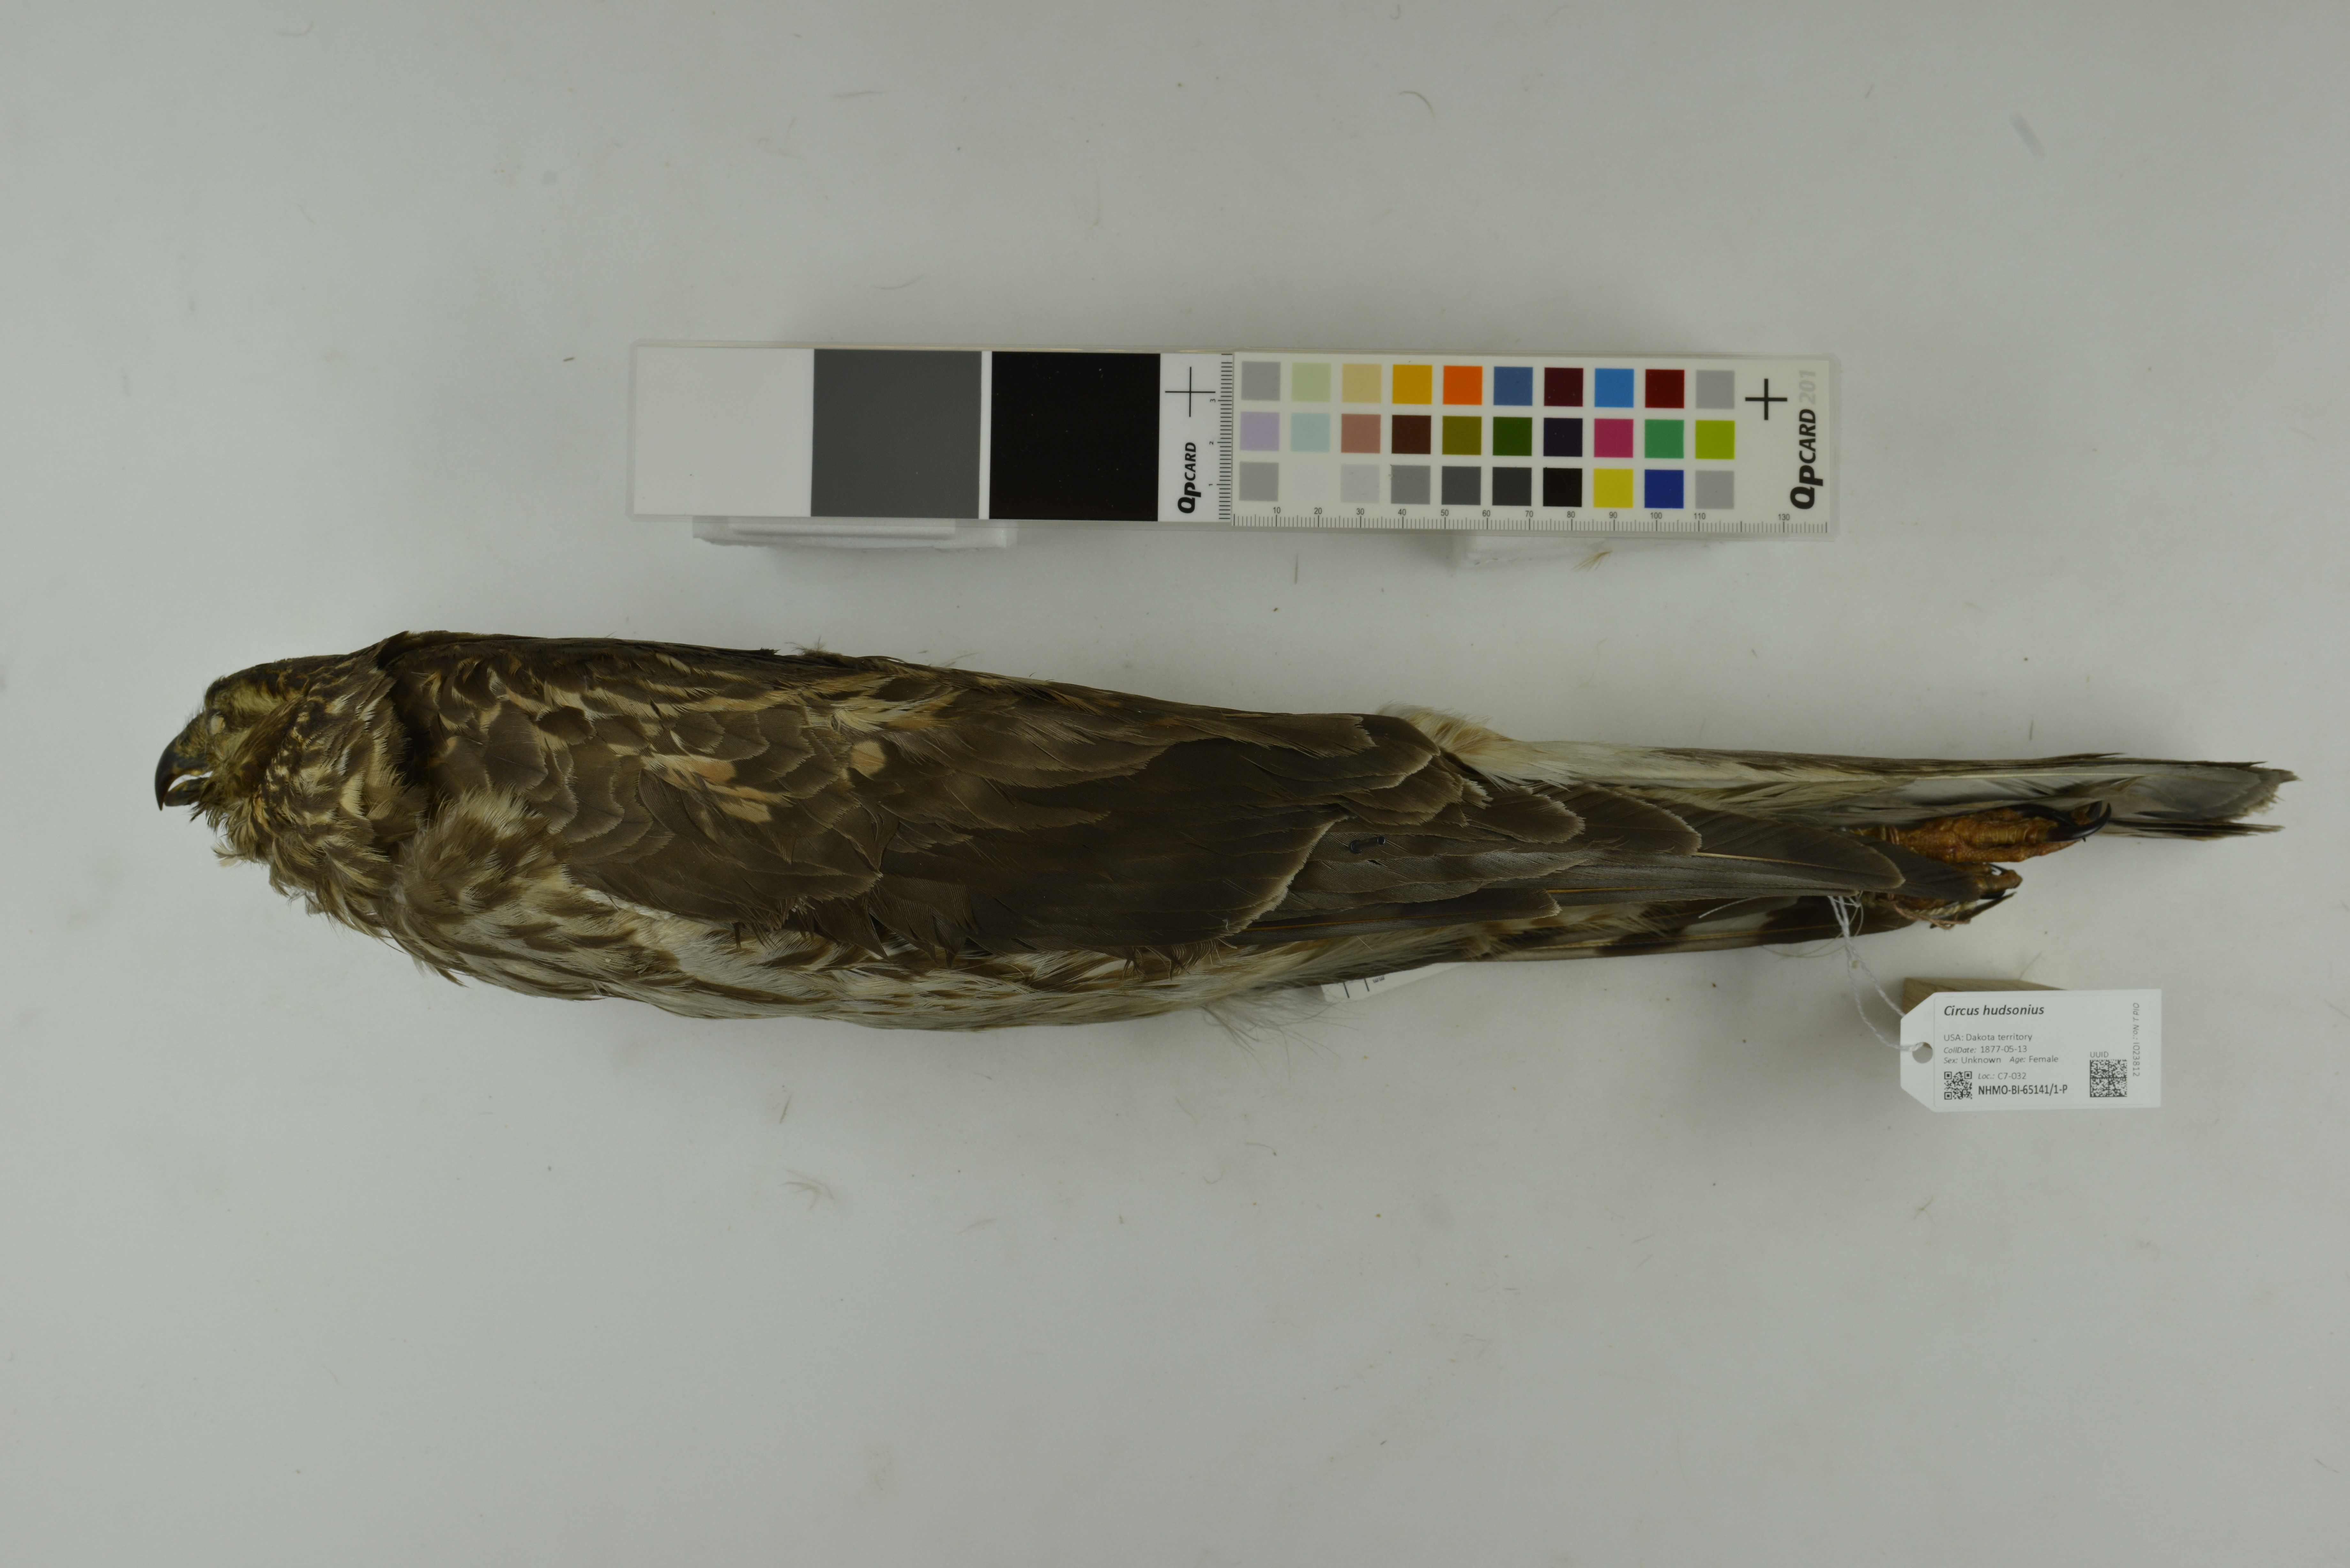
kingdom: Animalia
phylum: Chordata
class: Aves
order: Accipitriformes
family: Accipitridae
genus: Circus
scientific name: Circus cyaneus
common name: Hen harrier
